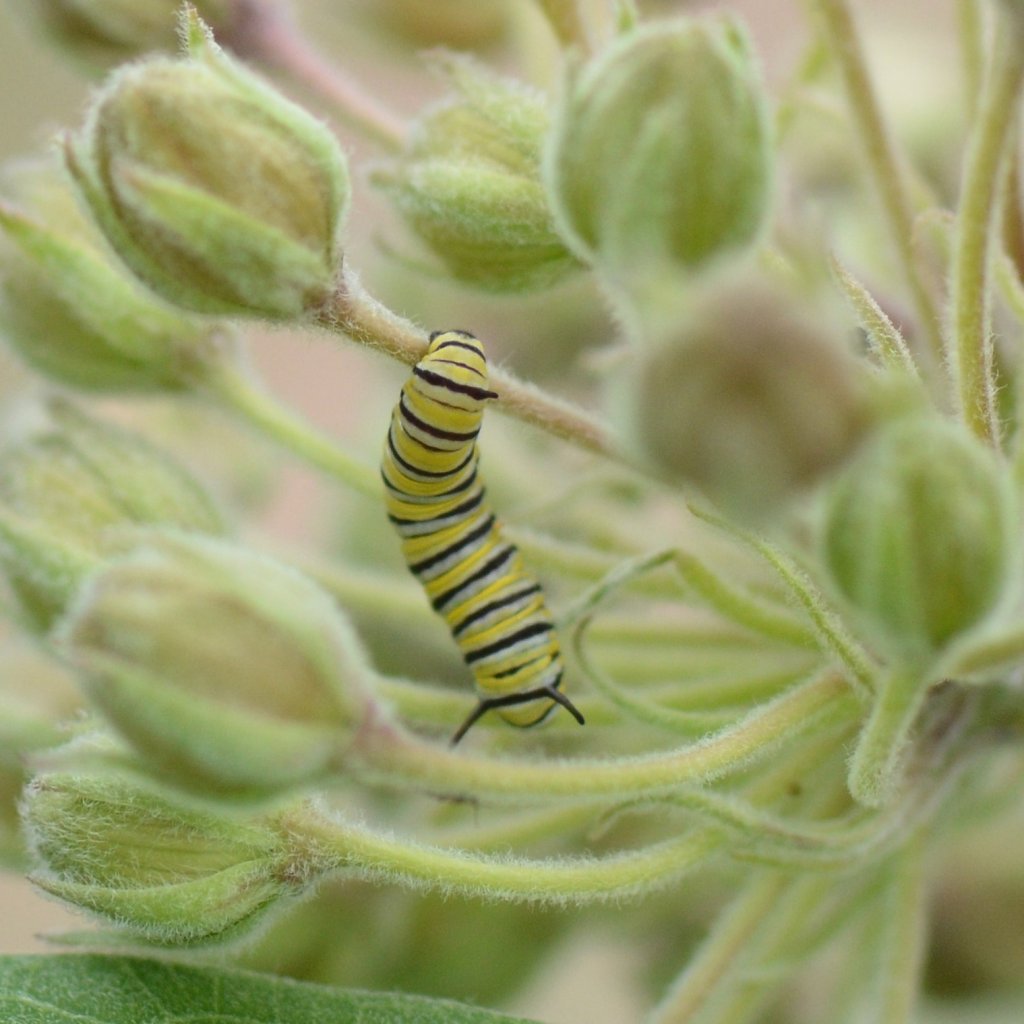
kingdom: Animalia
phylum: Arthropoda
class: Insecta
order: Lepidoptera
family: Nymphalidae
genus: Danaus
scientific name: Danaus plexippus
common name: Monarch
